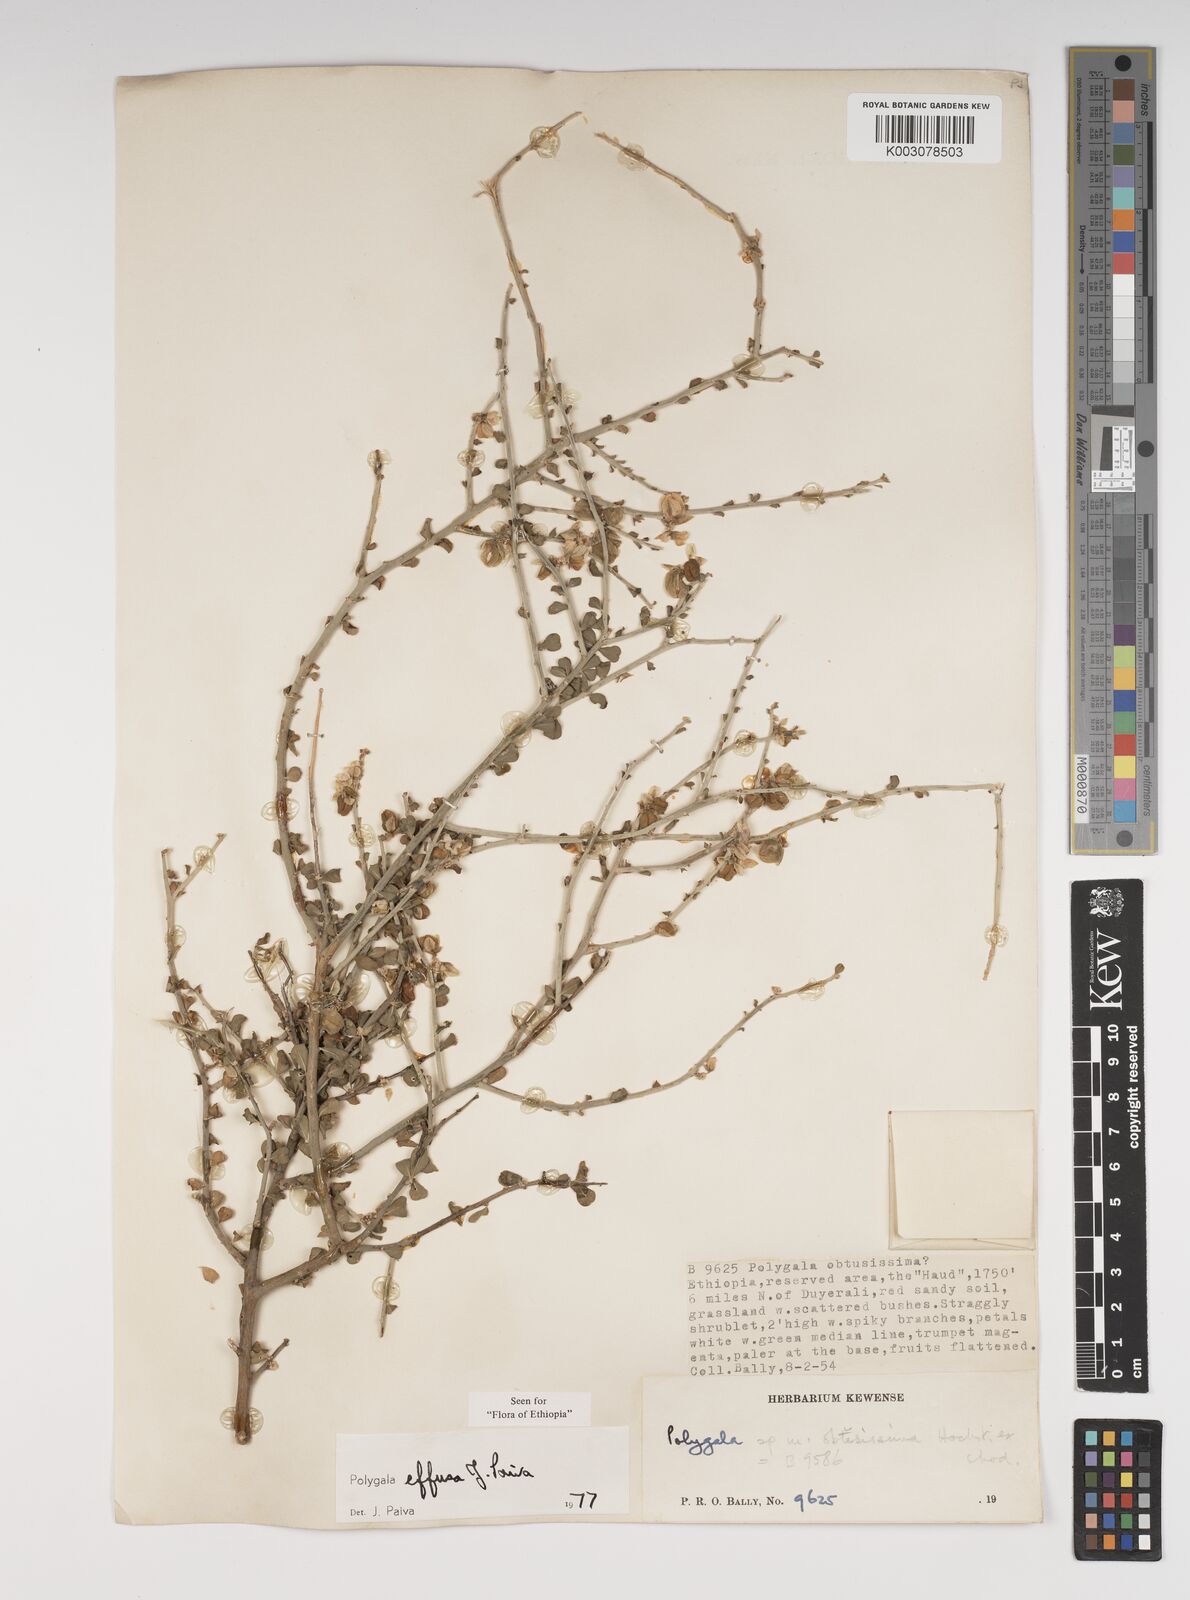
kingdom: Plantae
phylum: Tracheophyta
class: Magnoliopsida
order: Fabales
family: Polygalaceae
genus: Polygala
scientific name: Polygala effusa
